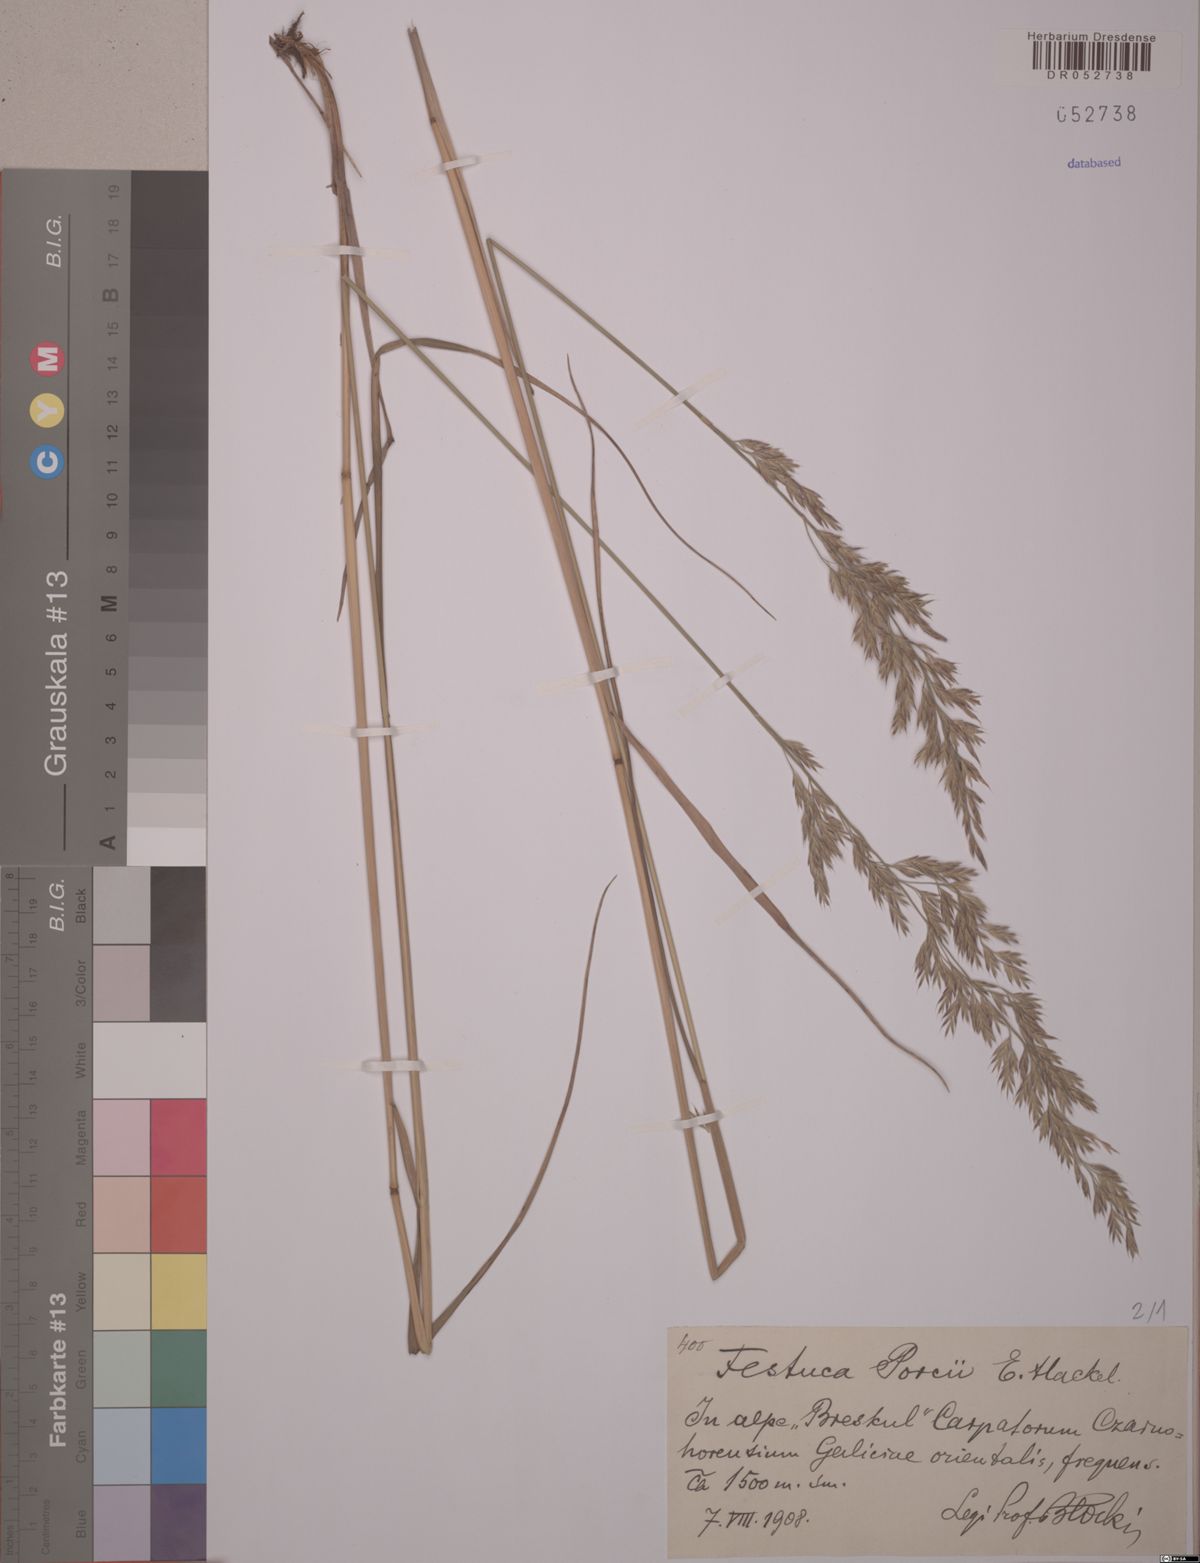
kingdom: Plantae
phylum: Tracheophyta
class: Liliopsida
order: Poales
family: Poaceae
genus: Festuca
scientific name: Festuca porcii
